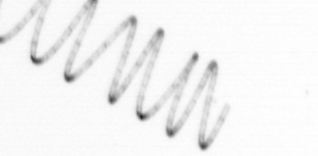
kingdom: Chromista
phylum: Ochrophyta
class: Bacillariophyceae
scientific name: Bacillariophyceae
